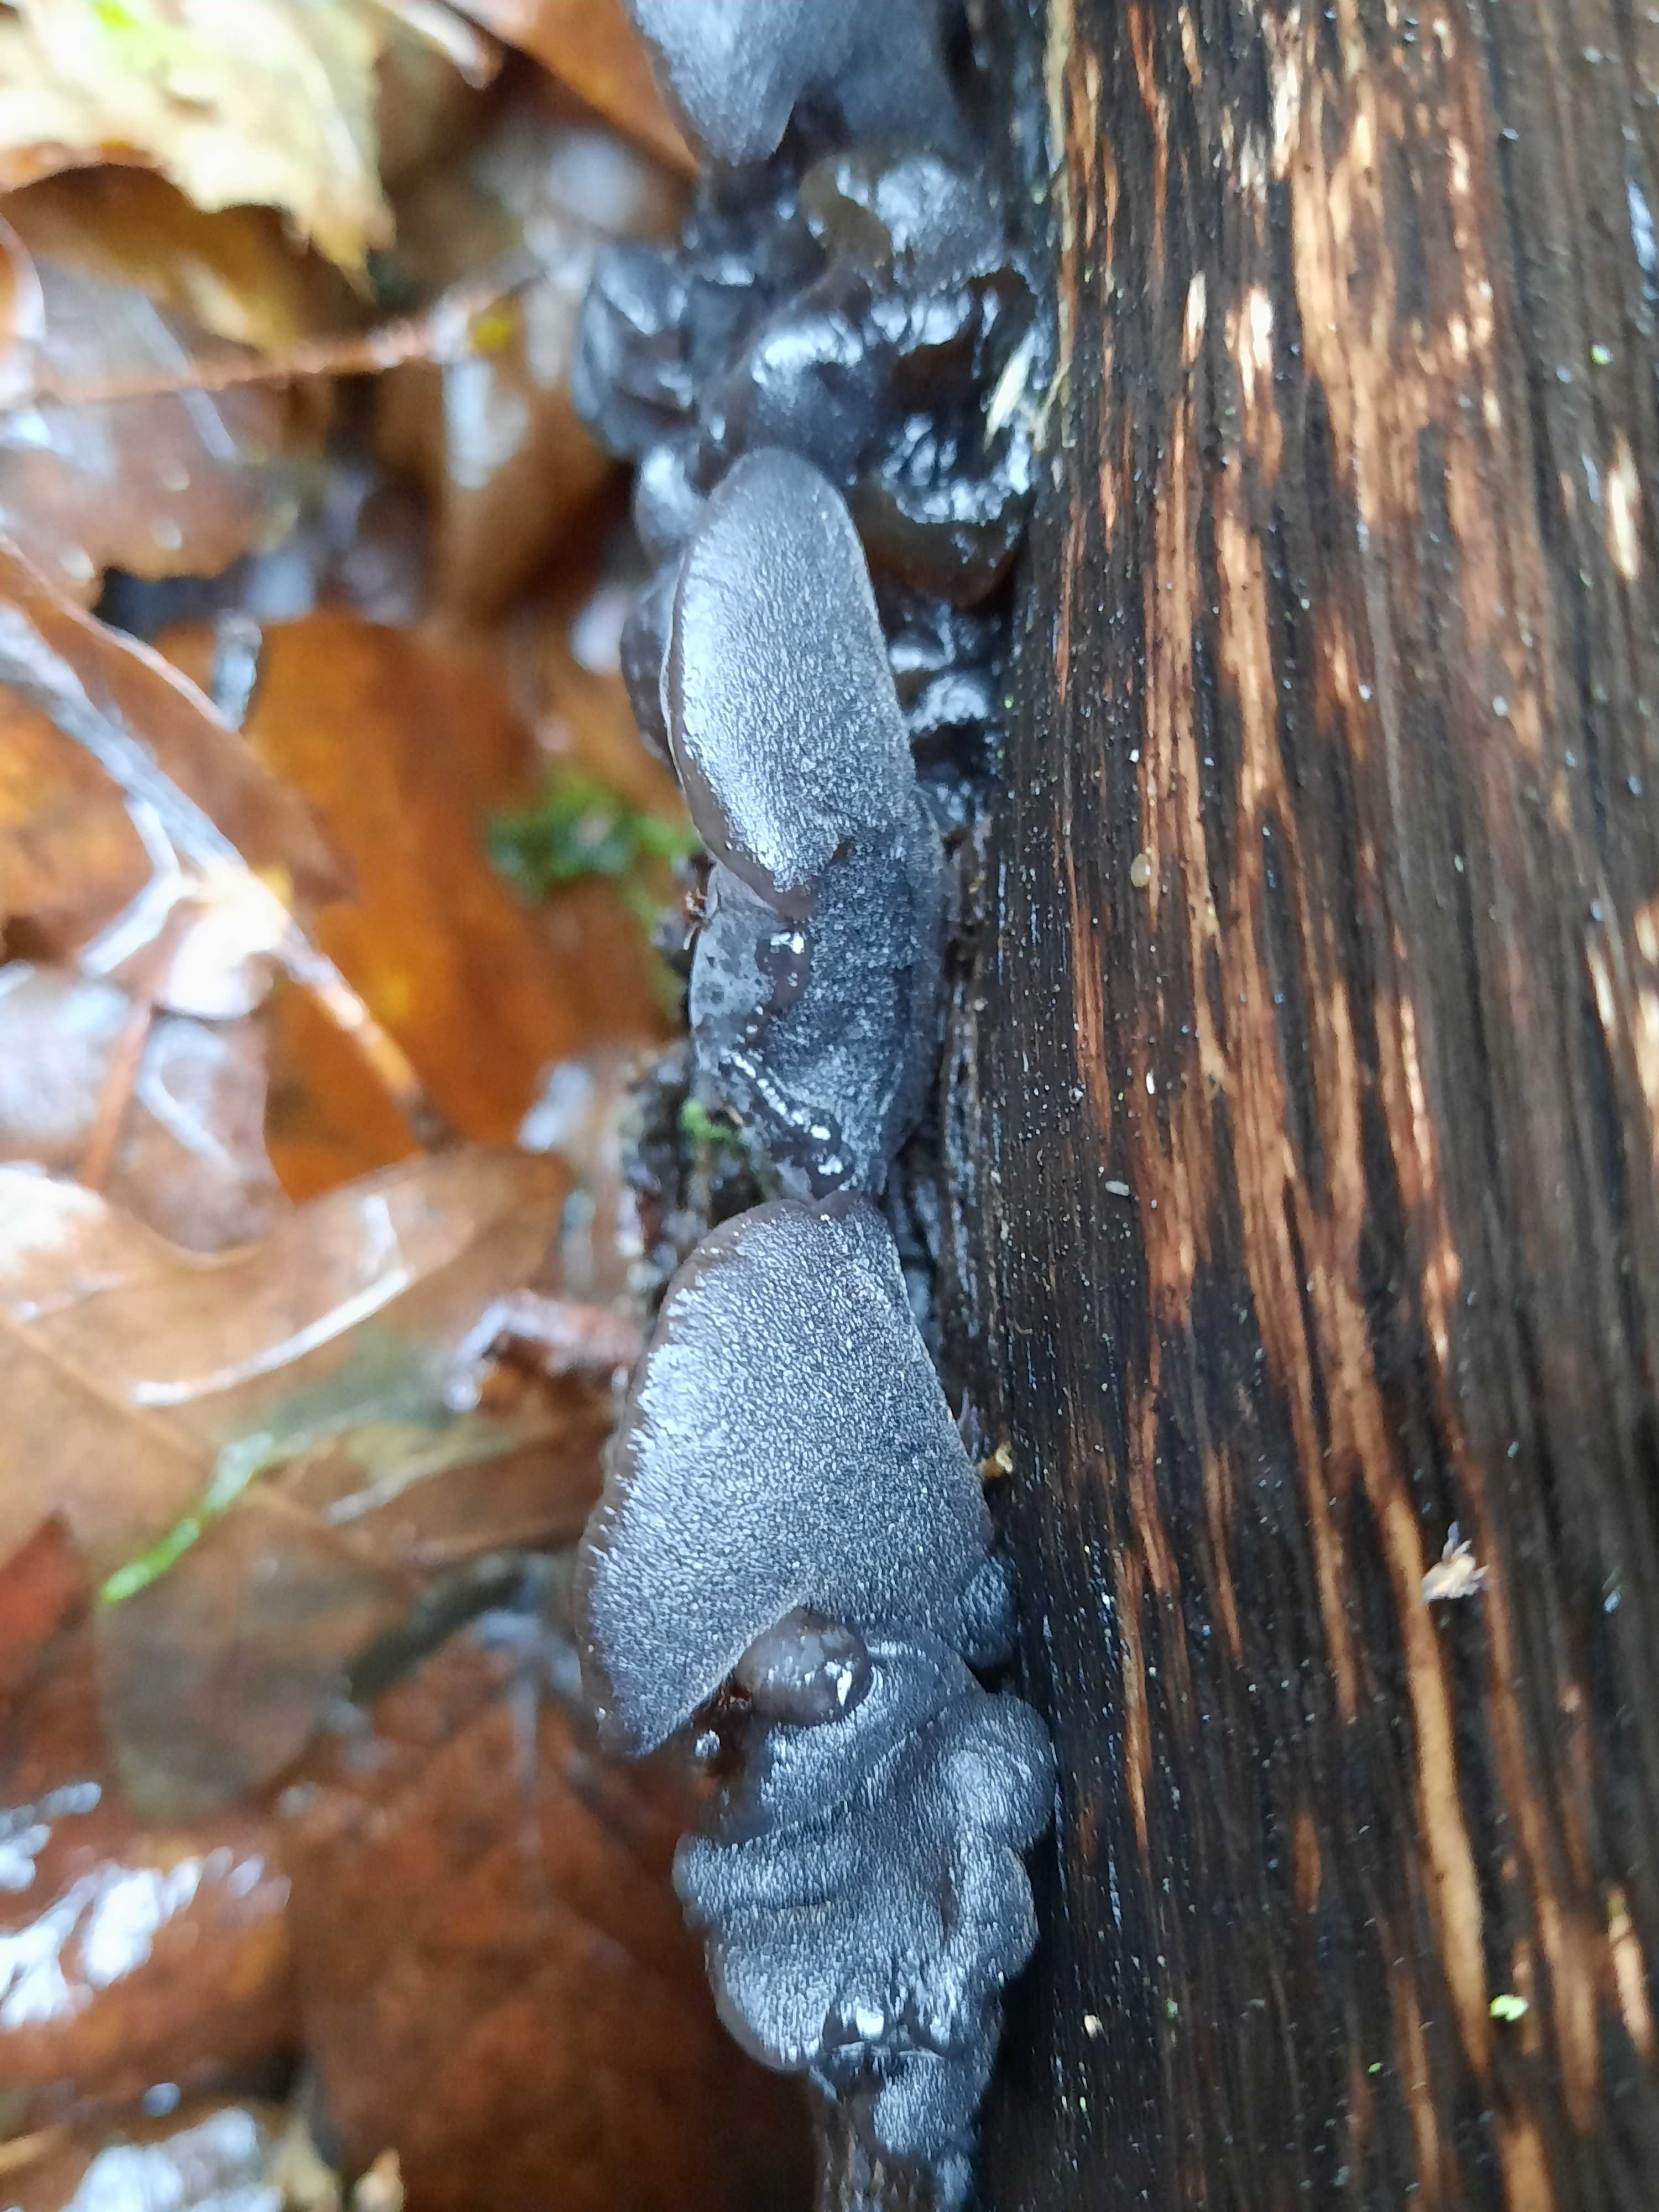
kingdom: Fungi
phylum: Basidiomycota
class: Agaricomycetes
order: Auriculariales
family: Auriculariaceae
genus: Exidia
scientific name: Exidia glandulosa
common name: ege-bævretop
